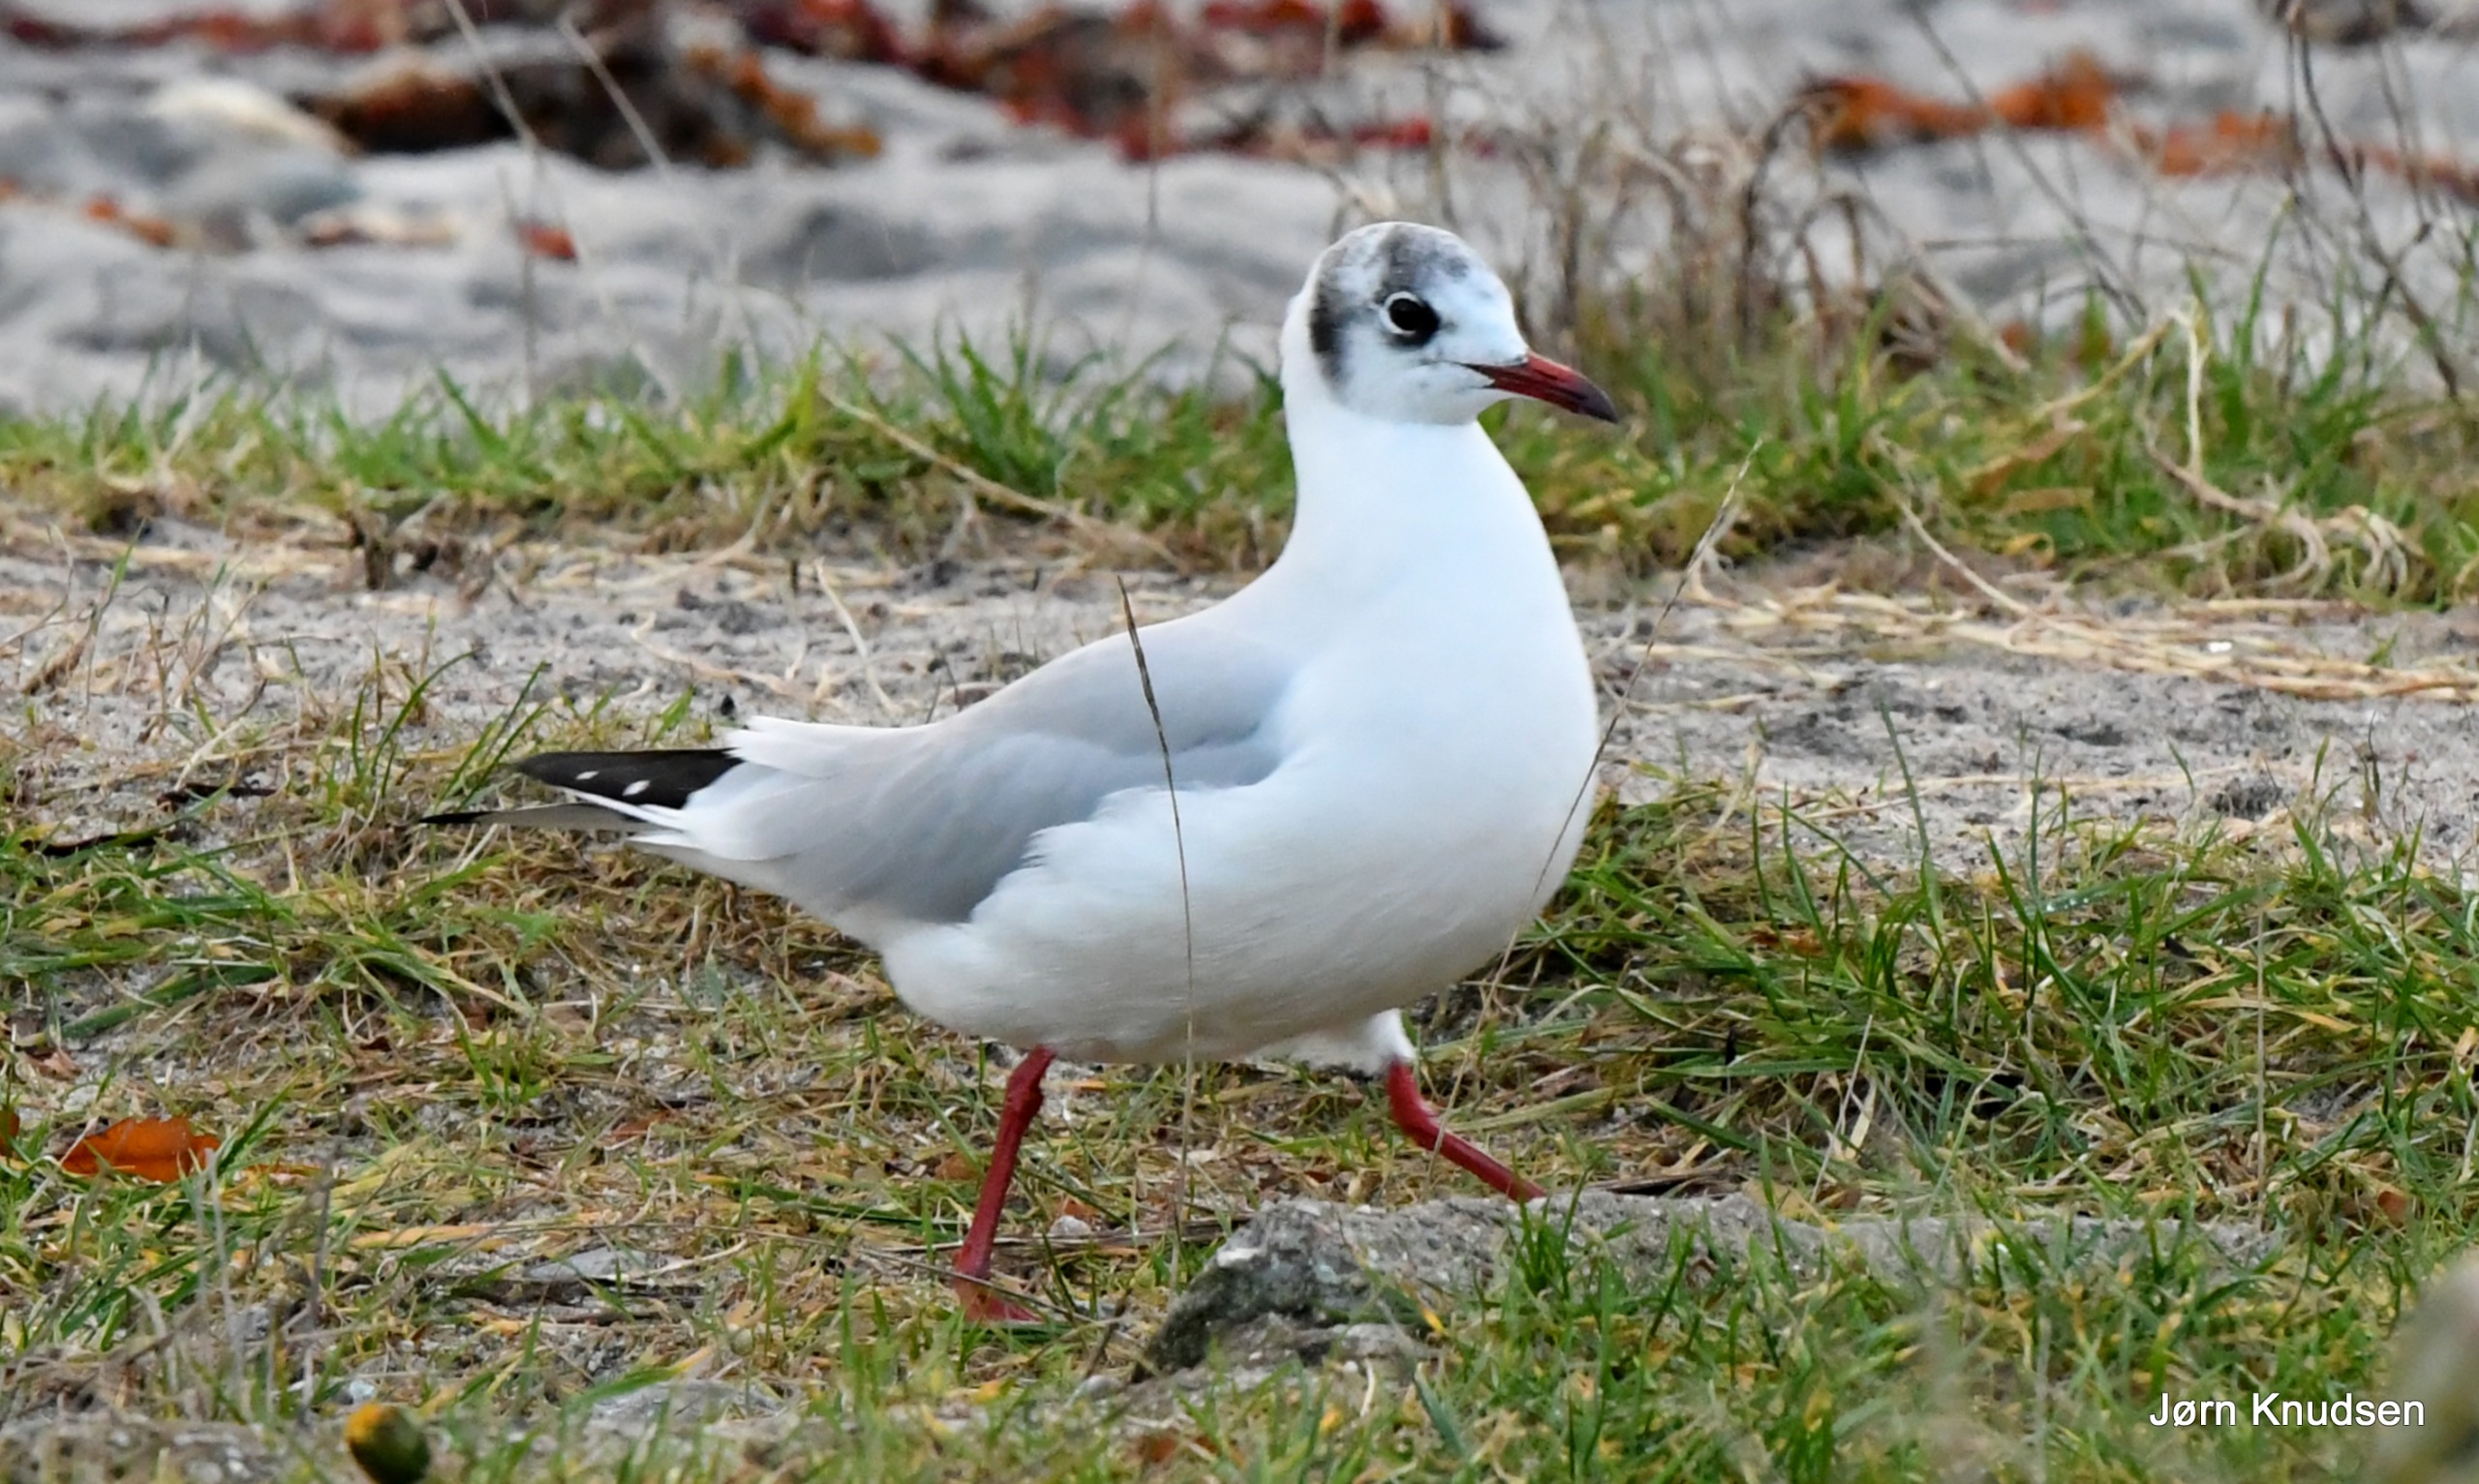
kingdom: Animalia
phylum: Chordata
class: Aves
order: Charadriiformes
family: Laridae
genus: Chroicocephalus
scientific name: Chroicocephalus ridibundus
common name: Hættemåge
